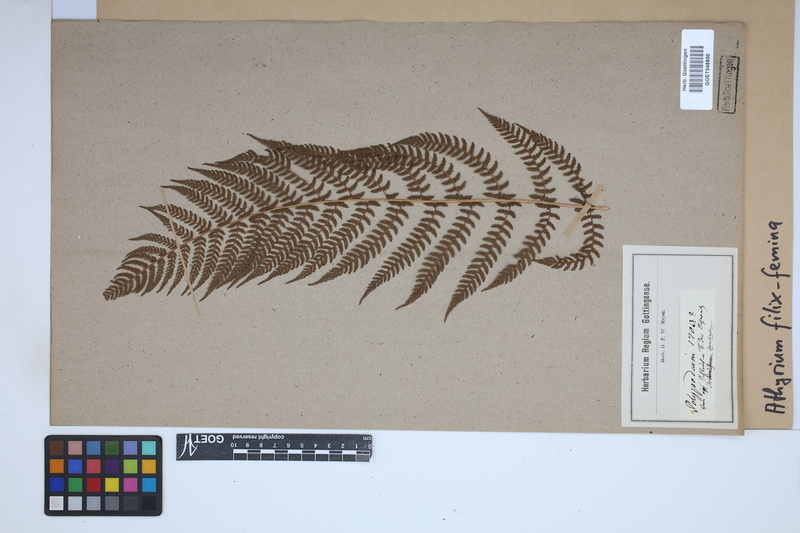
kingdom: Plantae
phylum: Tracheophyta
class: Polypodiopsida
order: Polypodiales
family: Athyriaceae
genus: Athyrium
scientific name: Athyrium filix-femina
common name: Lady fern
